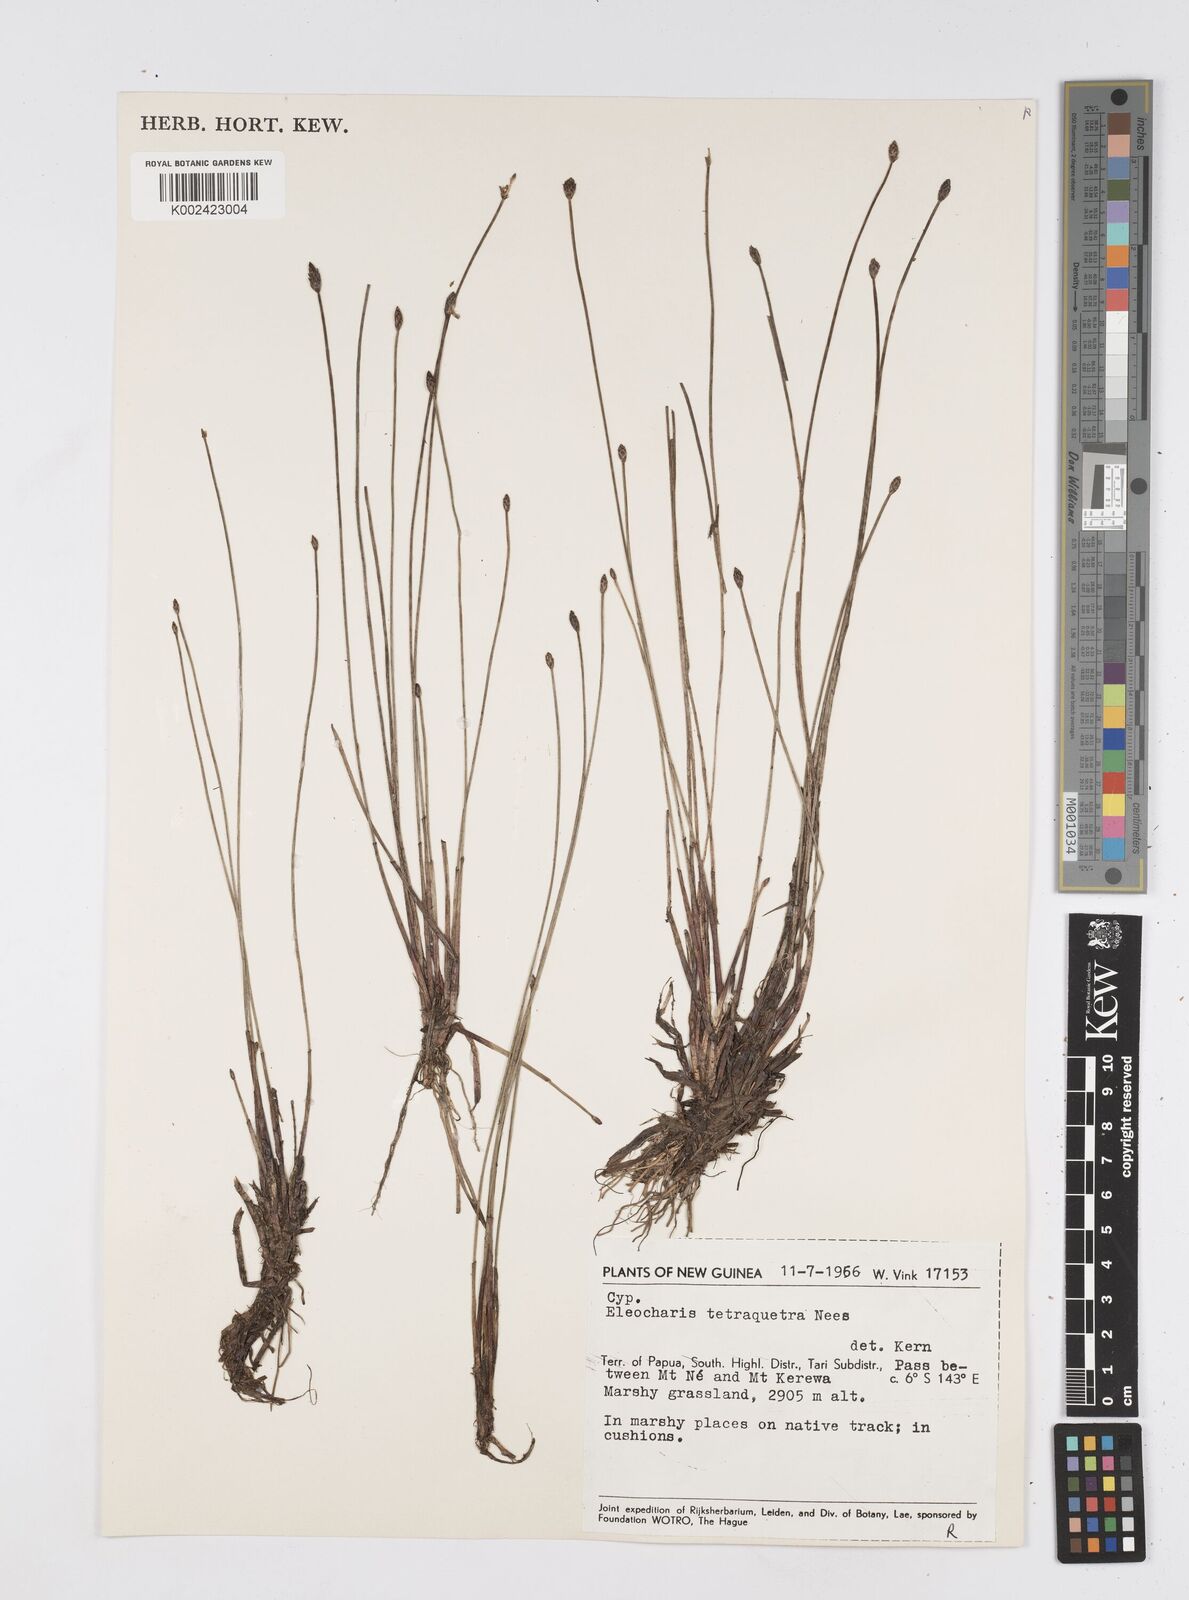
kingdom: Plantae
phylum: Tracheophyta
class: Liliopsida
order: Poales
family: Cyperaceae
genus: Eleocharis
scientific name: Eleocharis tetraquetra
